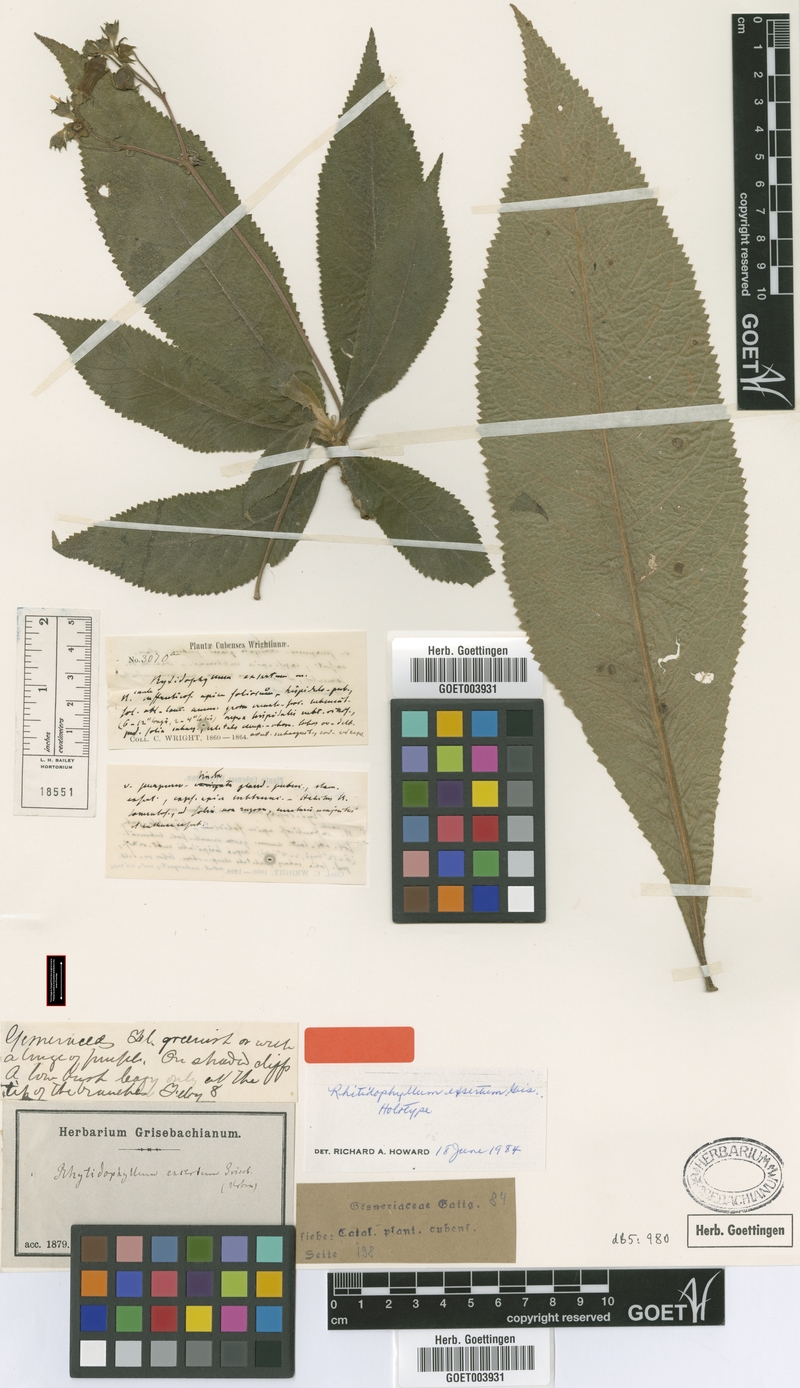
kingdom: Plantae
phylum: Tracheophyta
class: Magnoliopsida
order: Lamiales
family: Gesneriaceae
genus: Rhytidophyllum
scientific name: Rhytidophyllum exsertum
